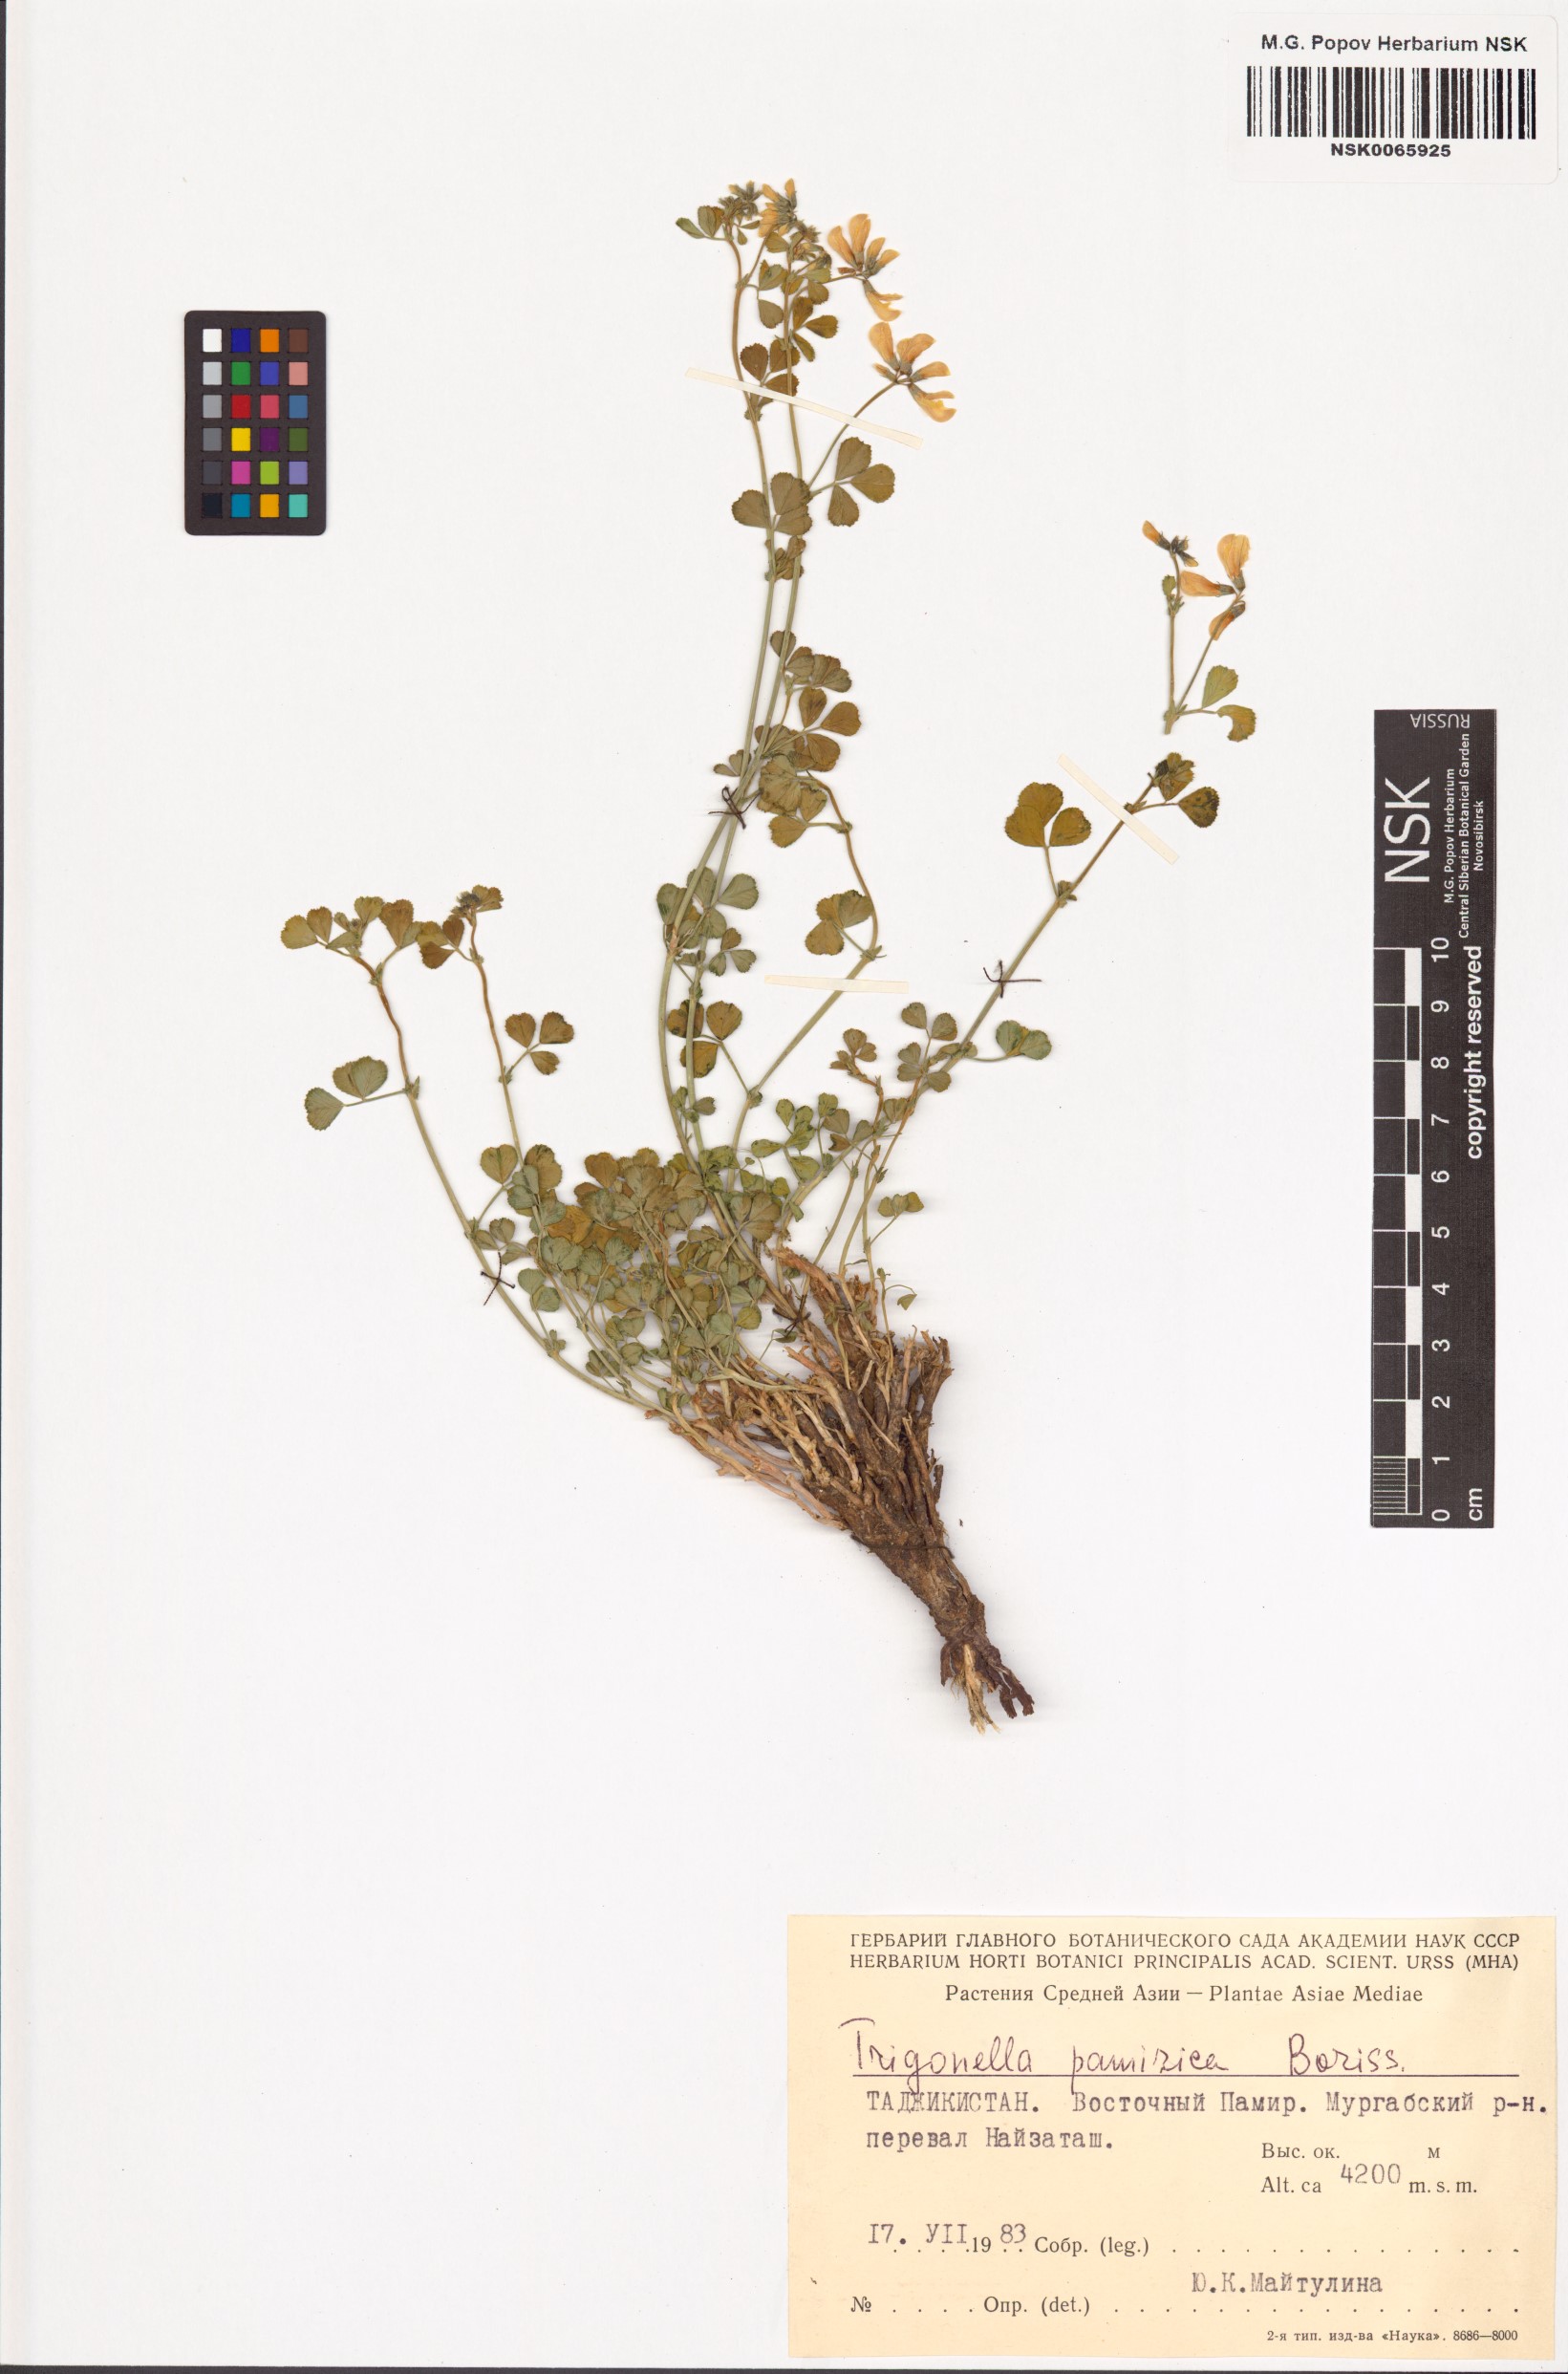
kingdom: Plantae
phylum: Tracheophyta
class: Magnoliopsida
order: Fabales
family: Fabaceae
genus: Trigonella
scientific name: Trigonella pamirica
